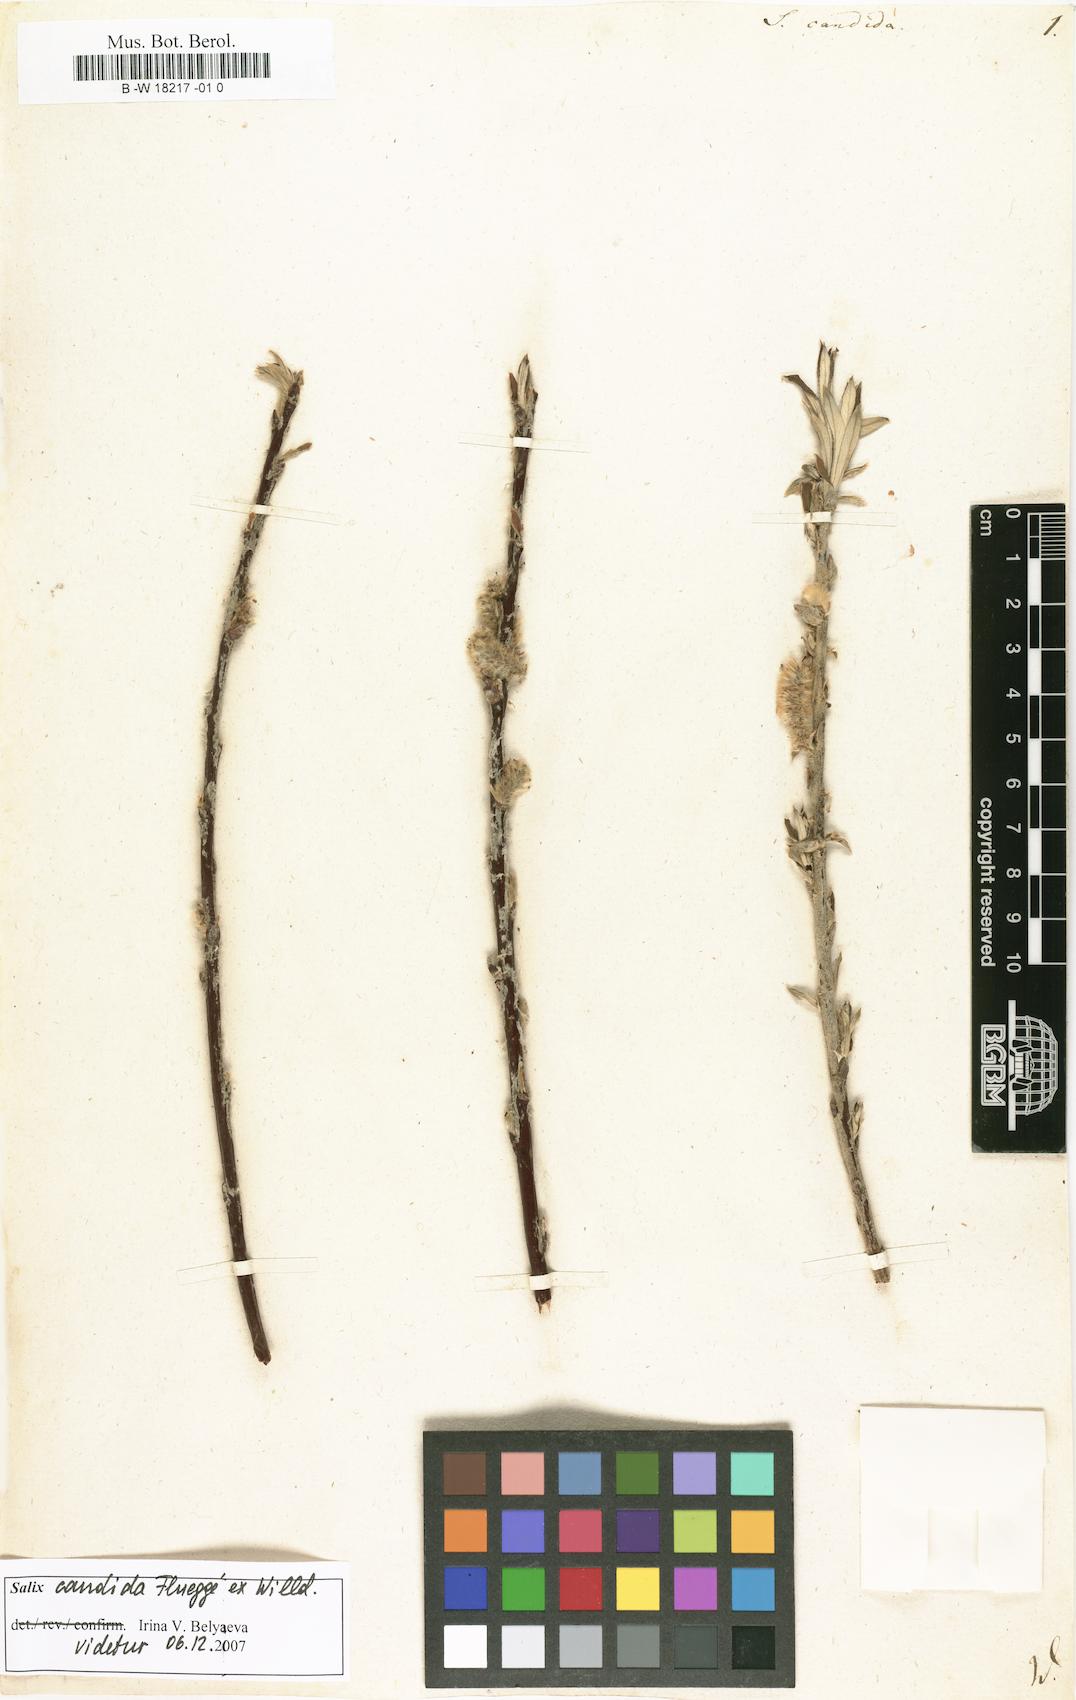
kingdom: Plantae
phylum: Tracheophyta
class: Magnoliopsida
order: Malpighiales
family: Salicaceae
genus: Salix
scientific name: Salix candida
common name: Hoary willow
